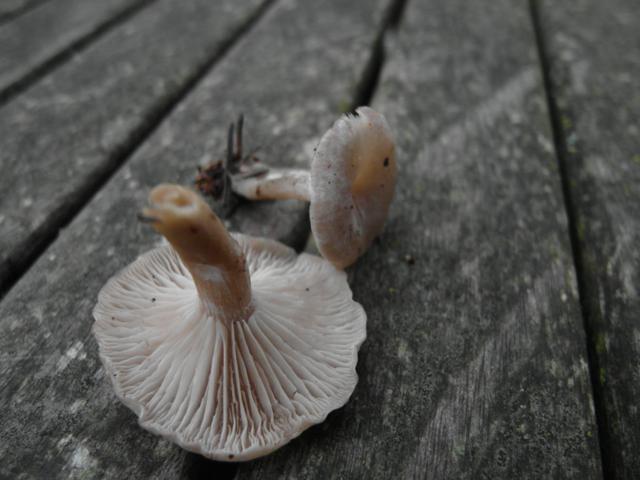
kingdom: Fungi
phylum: Basidiomycota
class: Agaricomycetes
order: Agaricales
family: Tricholomataceae
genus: Clitocybe
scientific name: Clitocybe metachroa
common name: grå tragthat
